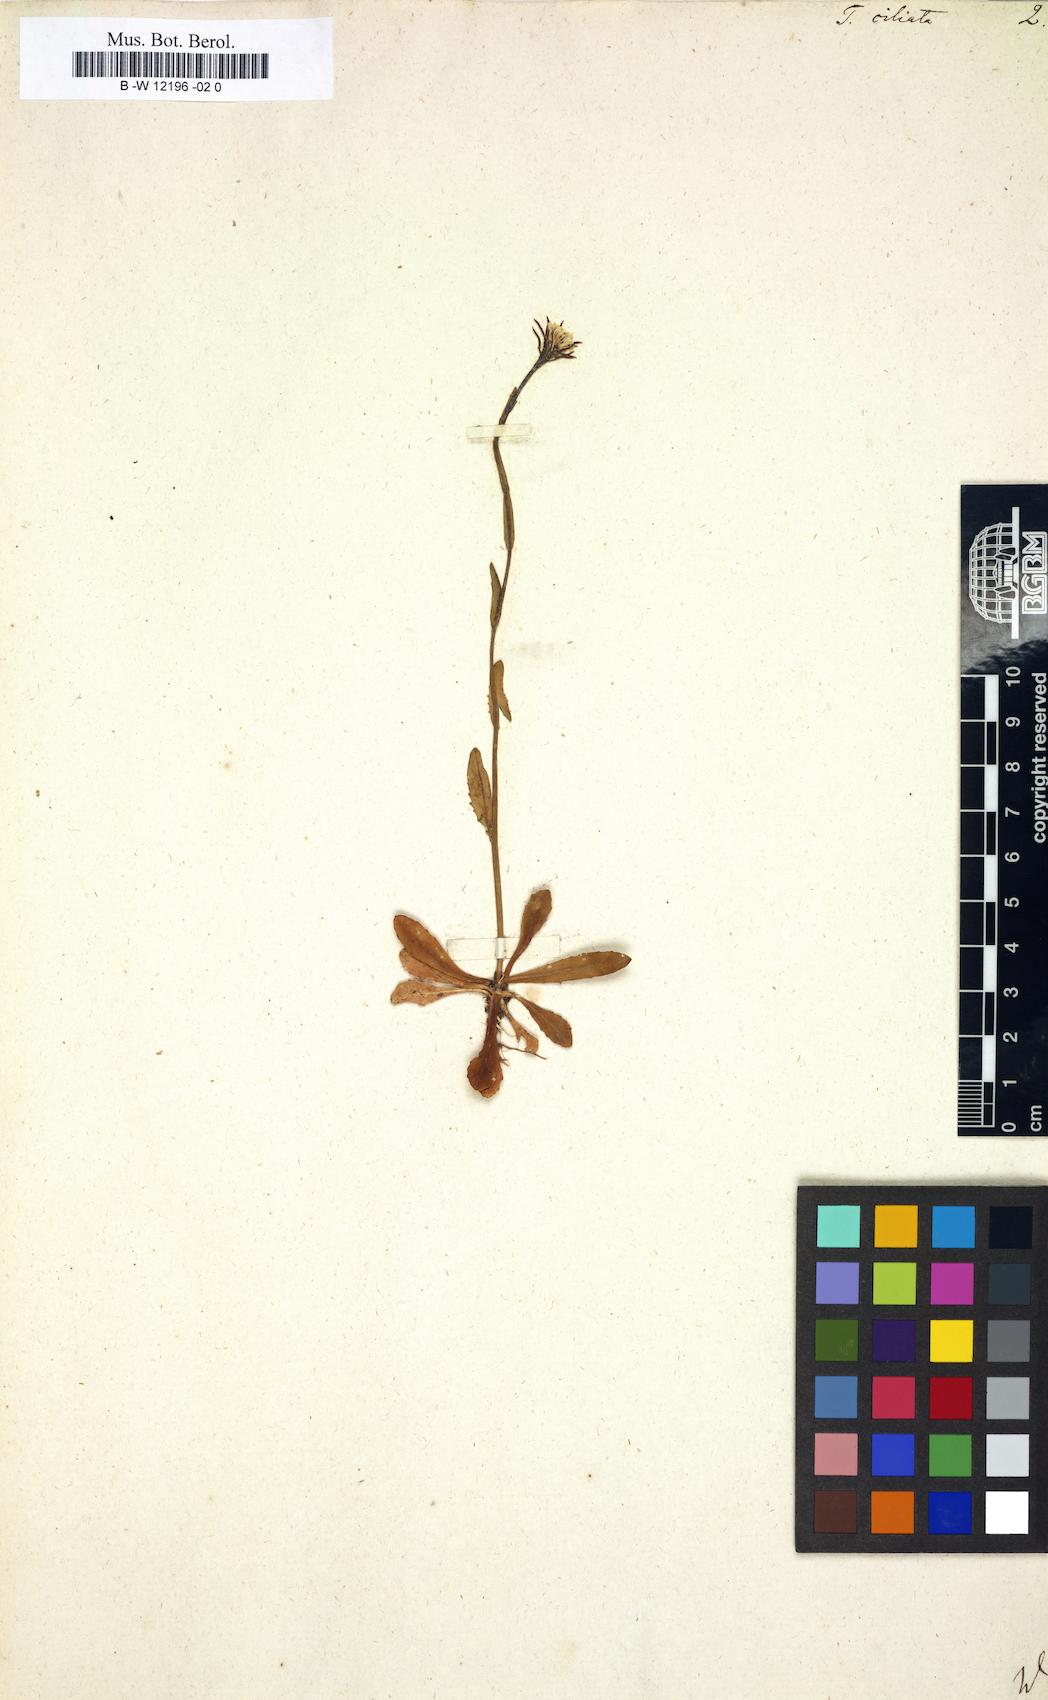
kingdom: Plantae
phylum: Tracheophyta
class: Magnoliopsida
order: Brassicales
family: Brassicaceae
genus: Turritis
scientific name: Turritis ciliata
